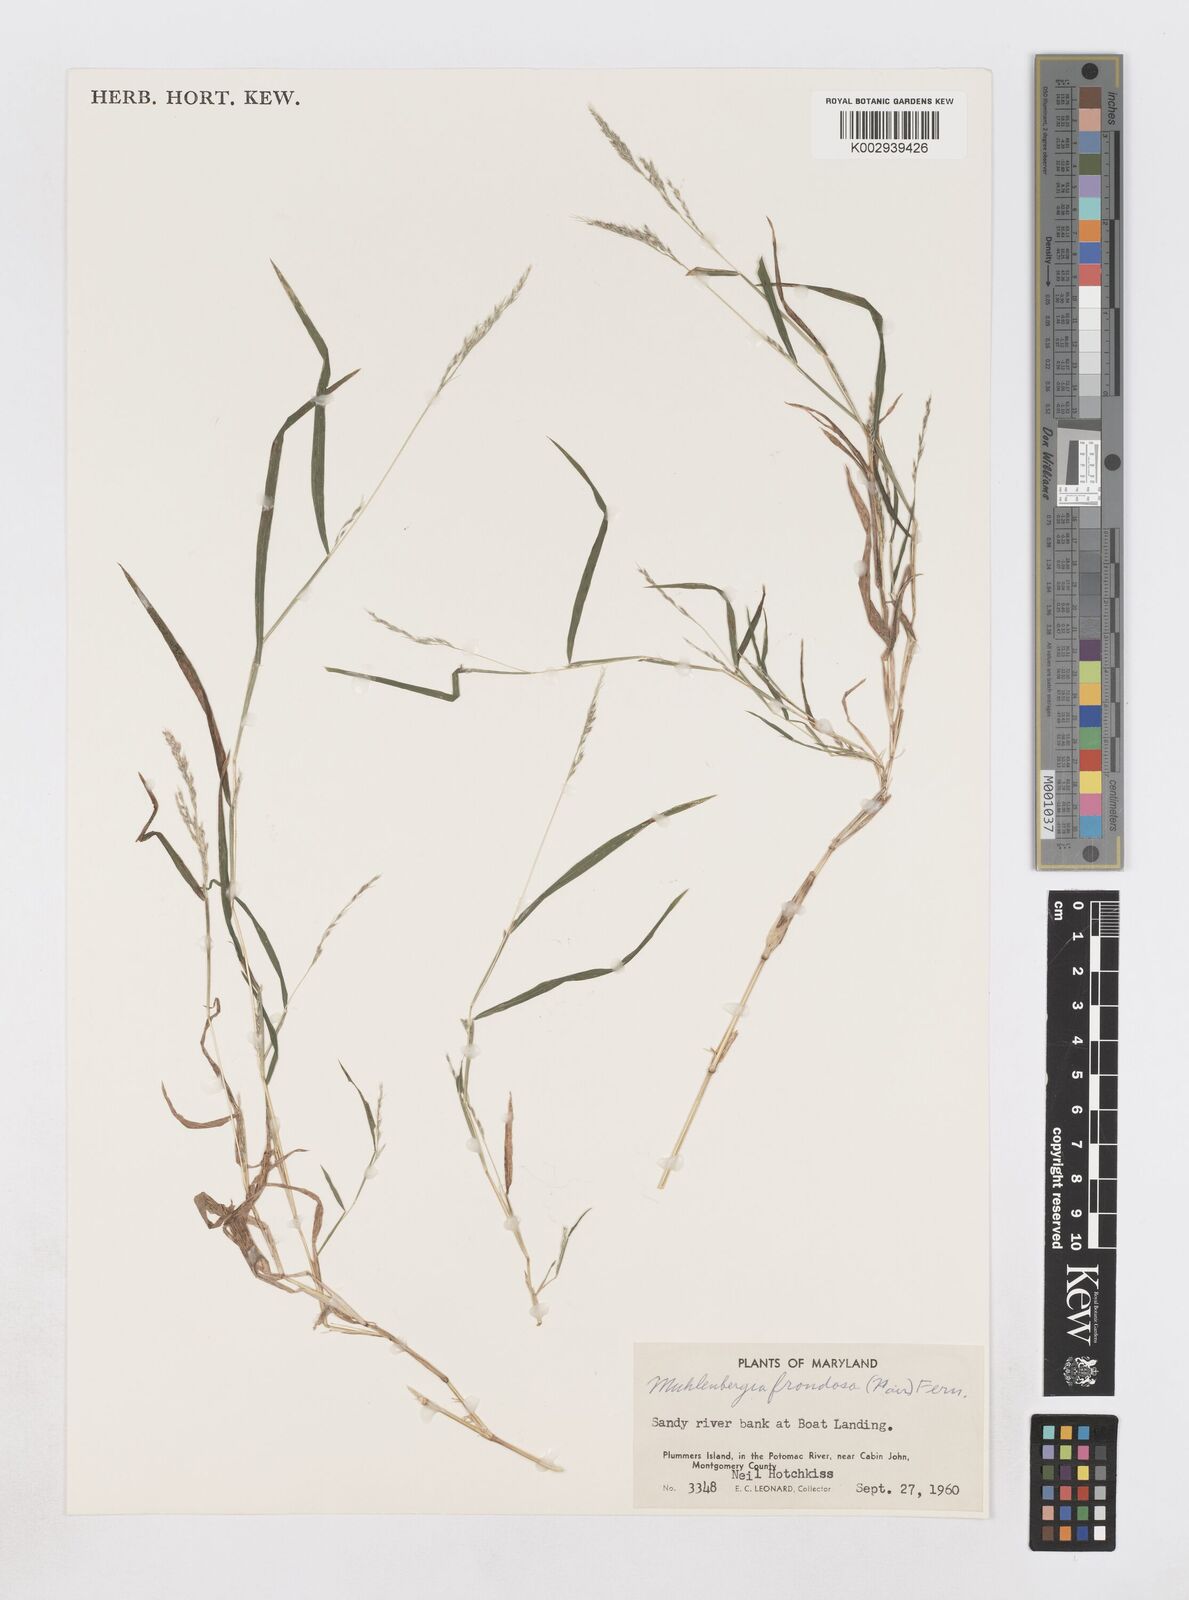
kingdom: Plantae
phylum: Tracheophyta
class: Liliopsida
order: Poales
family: Poaceae
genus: Muhlenbergia
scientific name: Muhlenbergia frondosa
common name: Common satingrass
